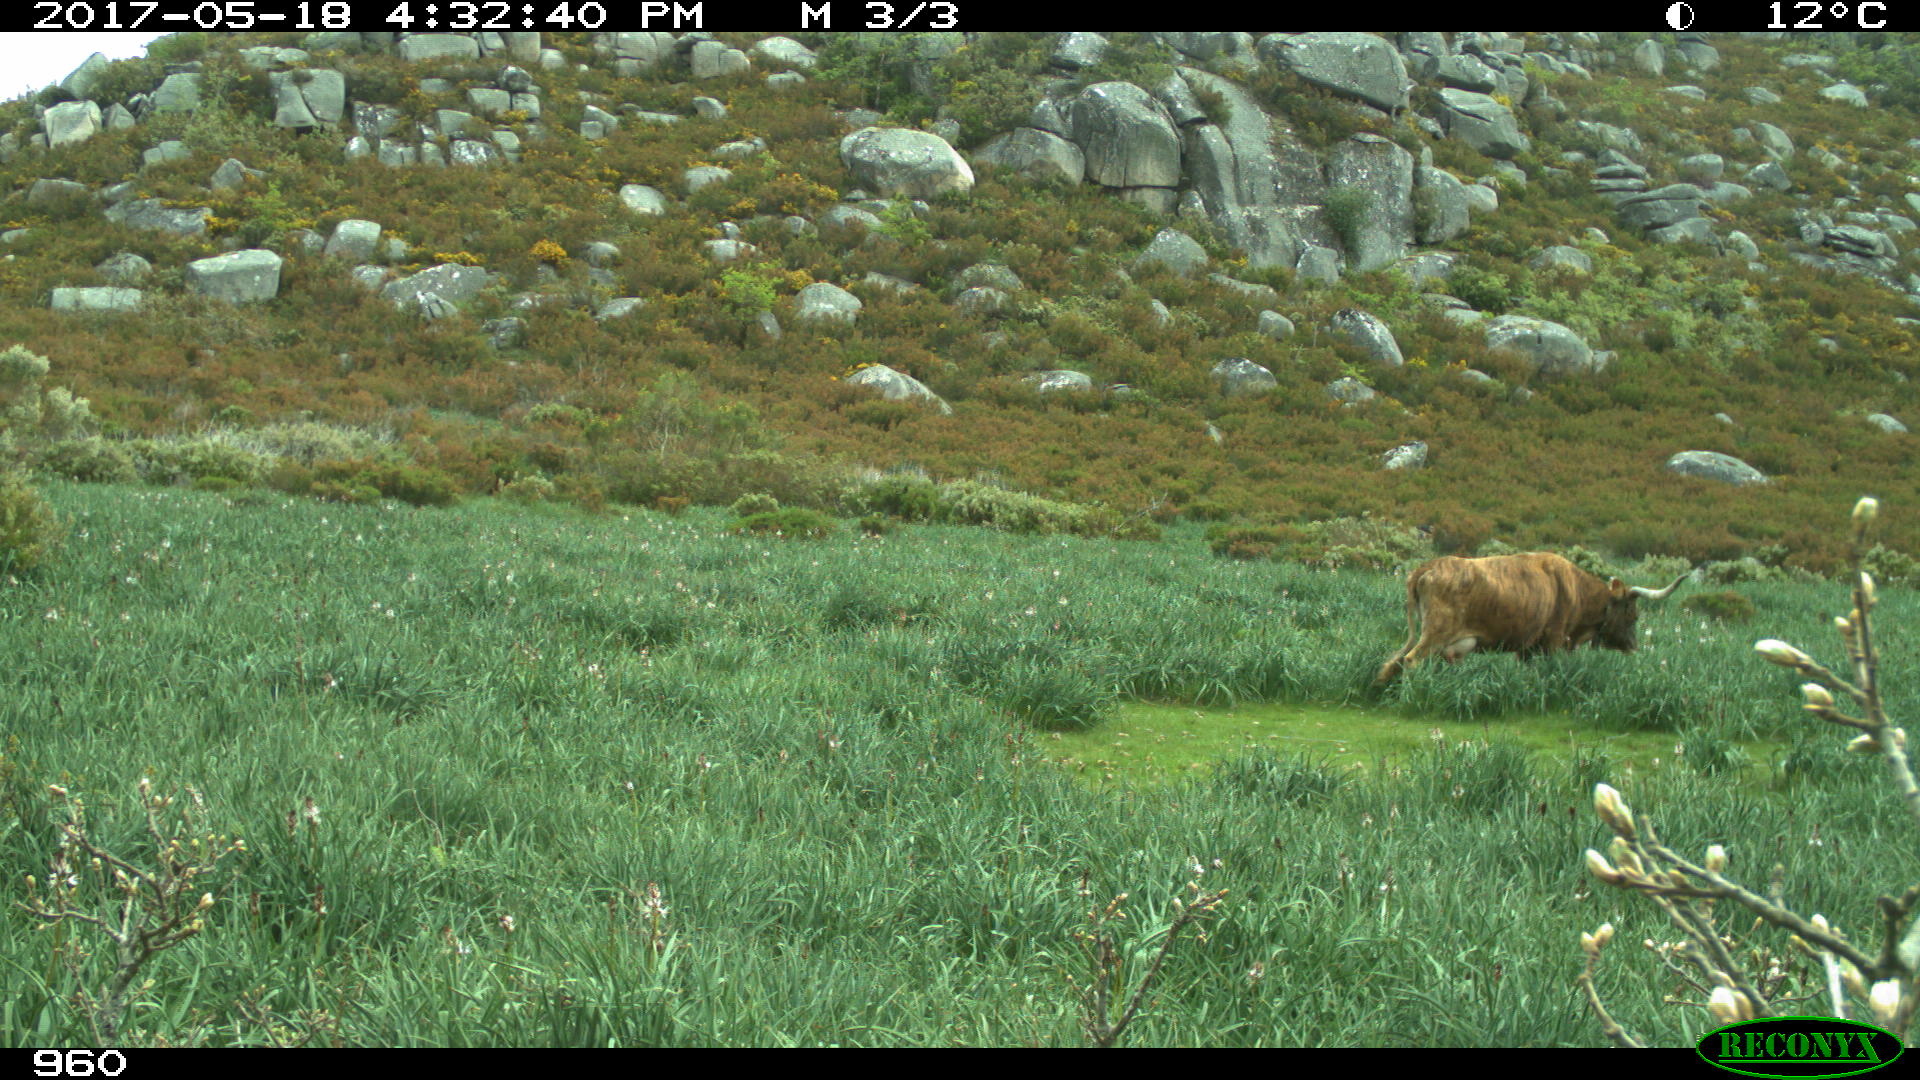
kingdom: Animalia
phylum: Chordata
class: Mammalia
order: Artiodactyla
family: Bovidae
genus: Bos
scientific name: Bos taurus
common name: Domesticated cattle
